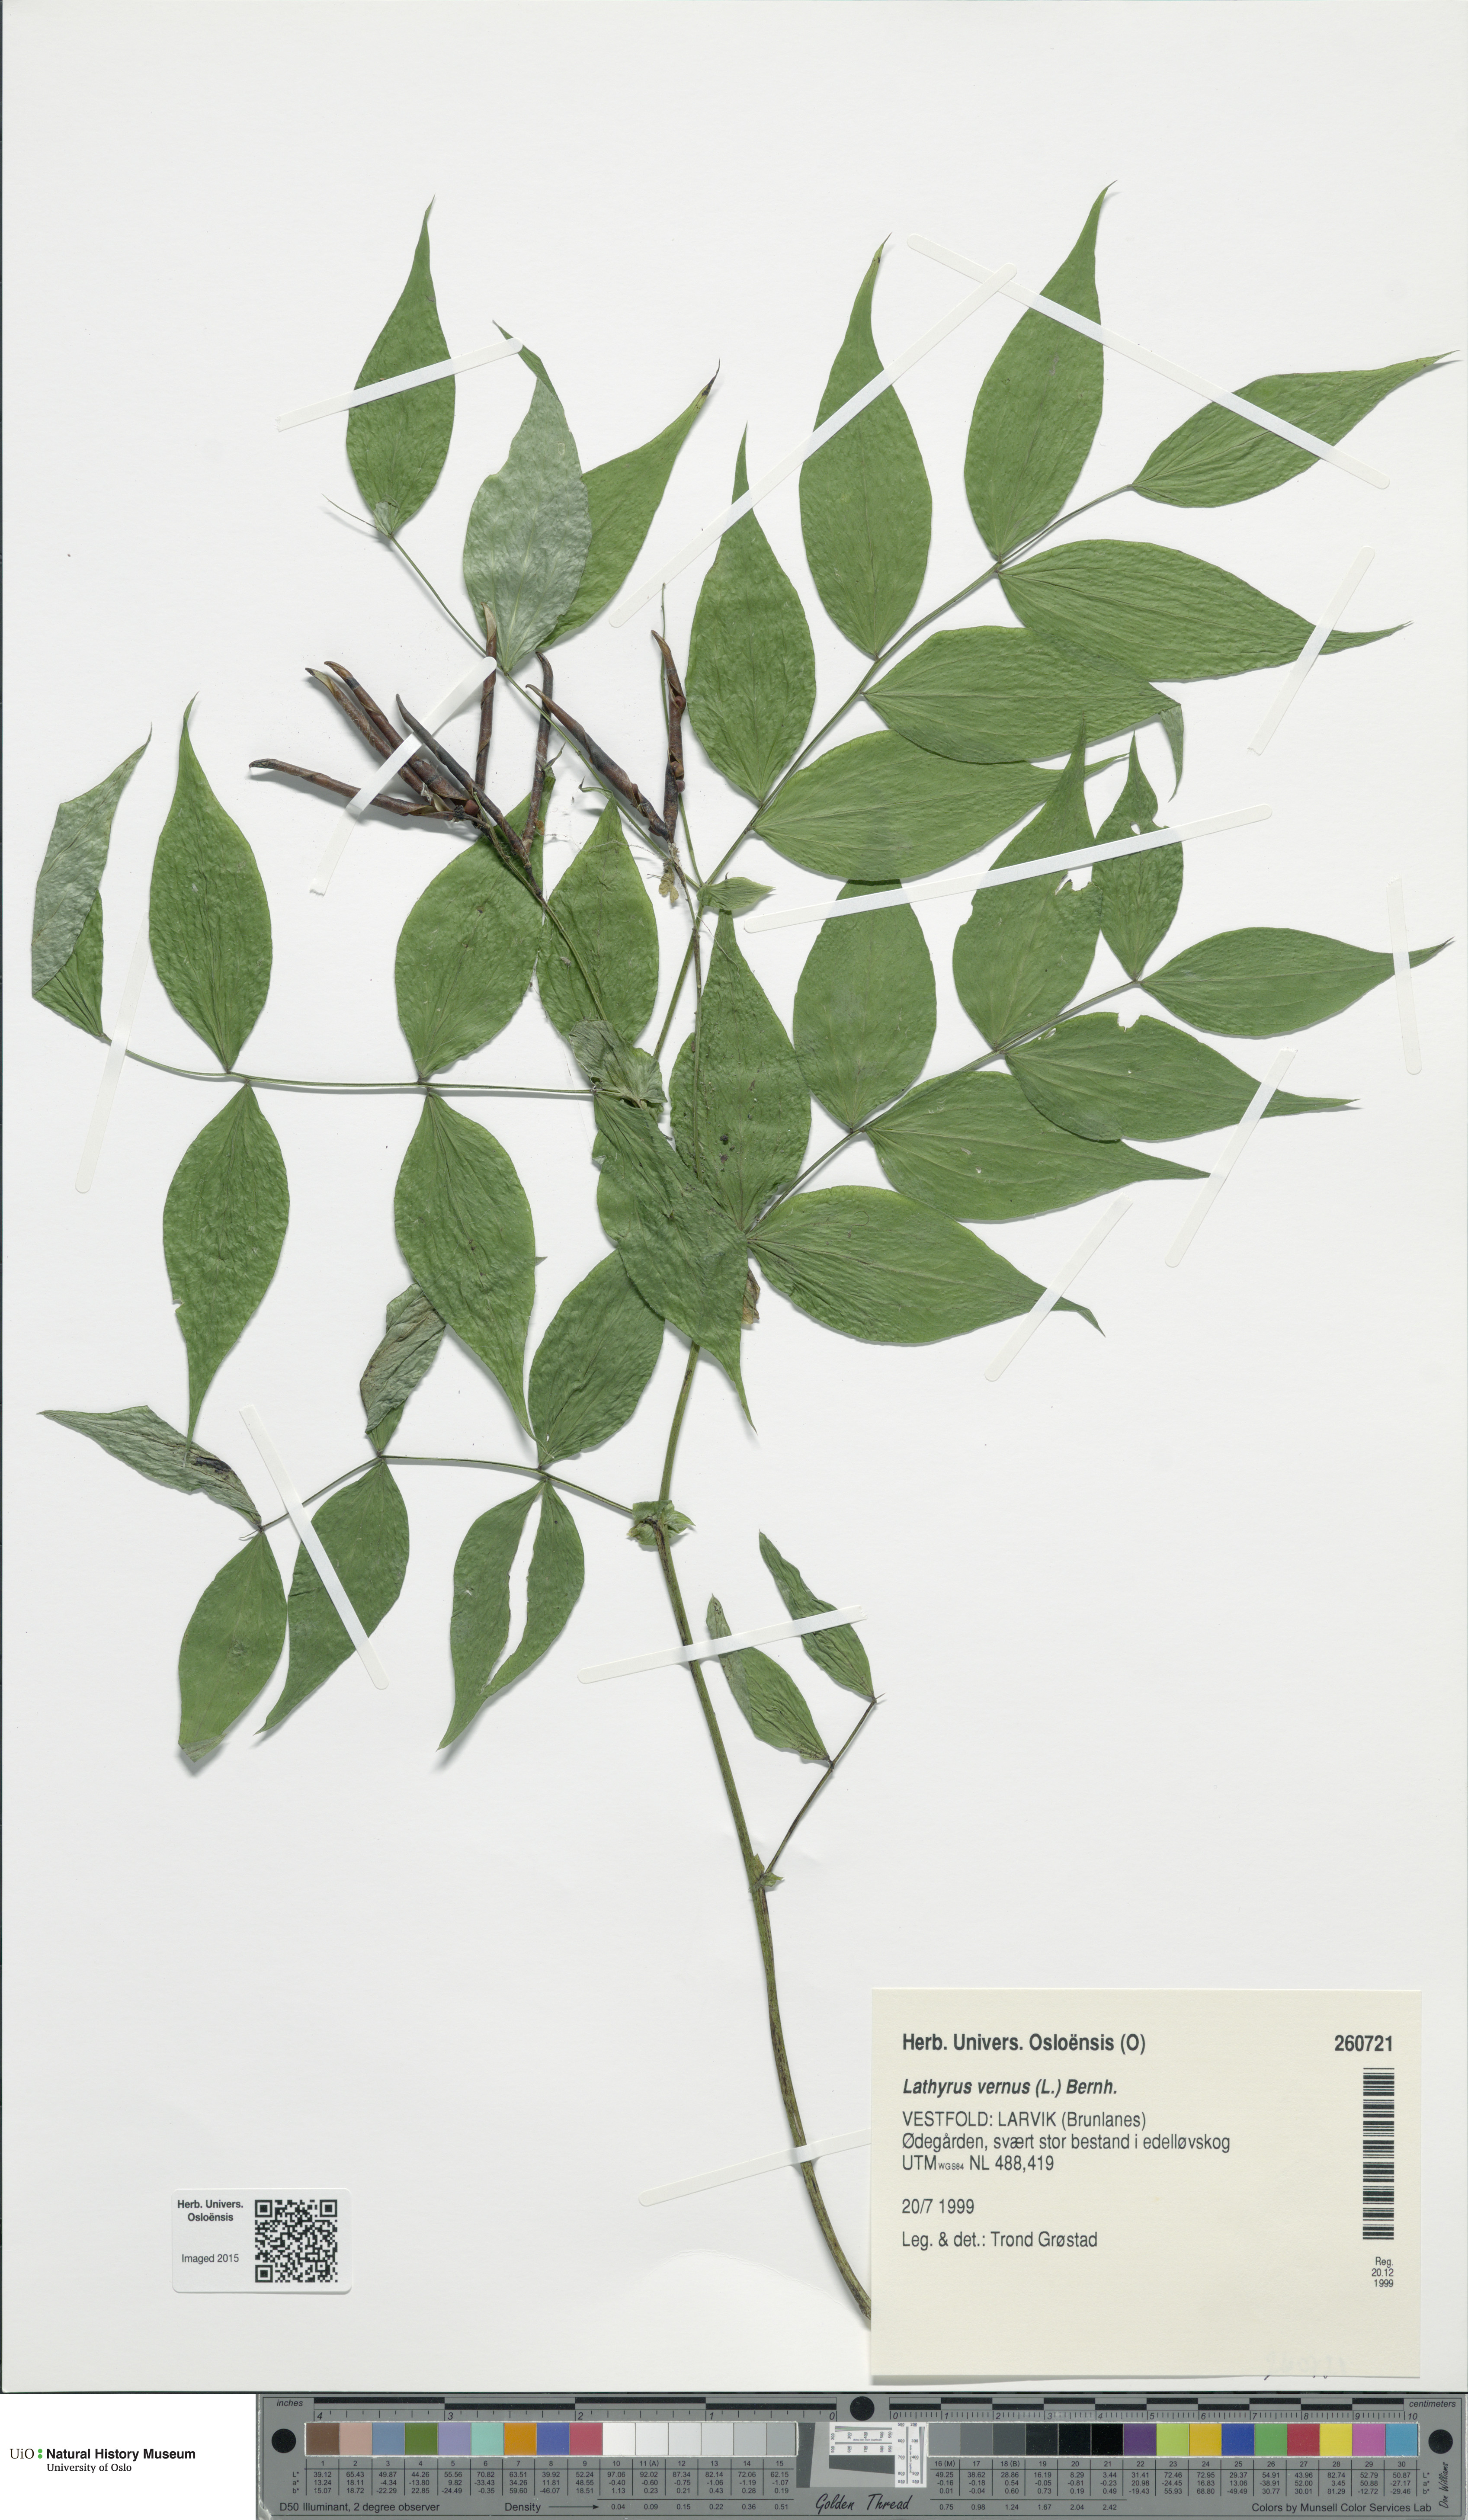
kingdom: Plantae
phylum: Tracheophyta
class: Magnoliopsida
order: Fabales
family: Fabaceae
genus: Lathyrus
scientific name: Lathyrus vernus
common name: Spring pea
